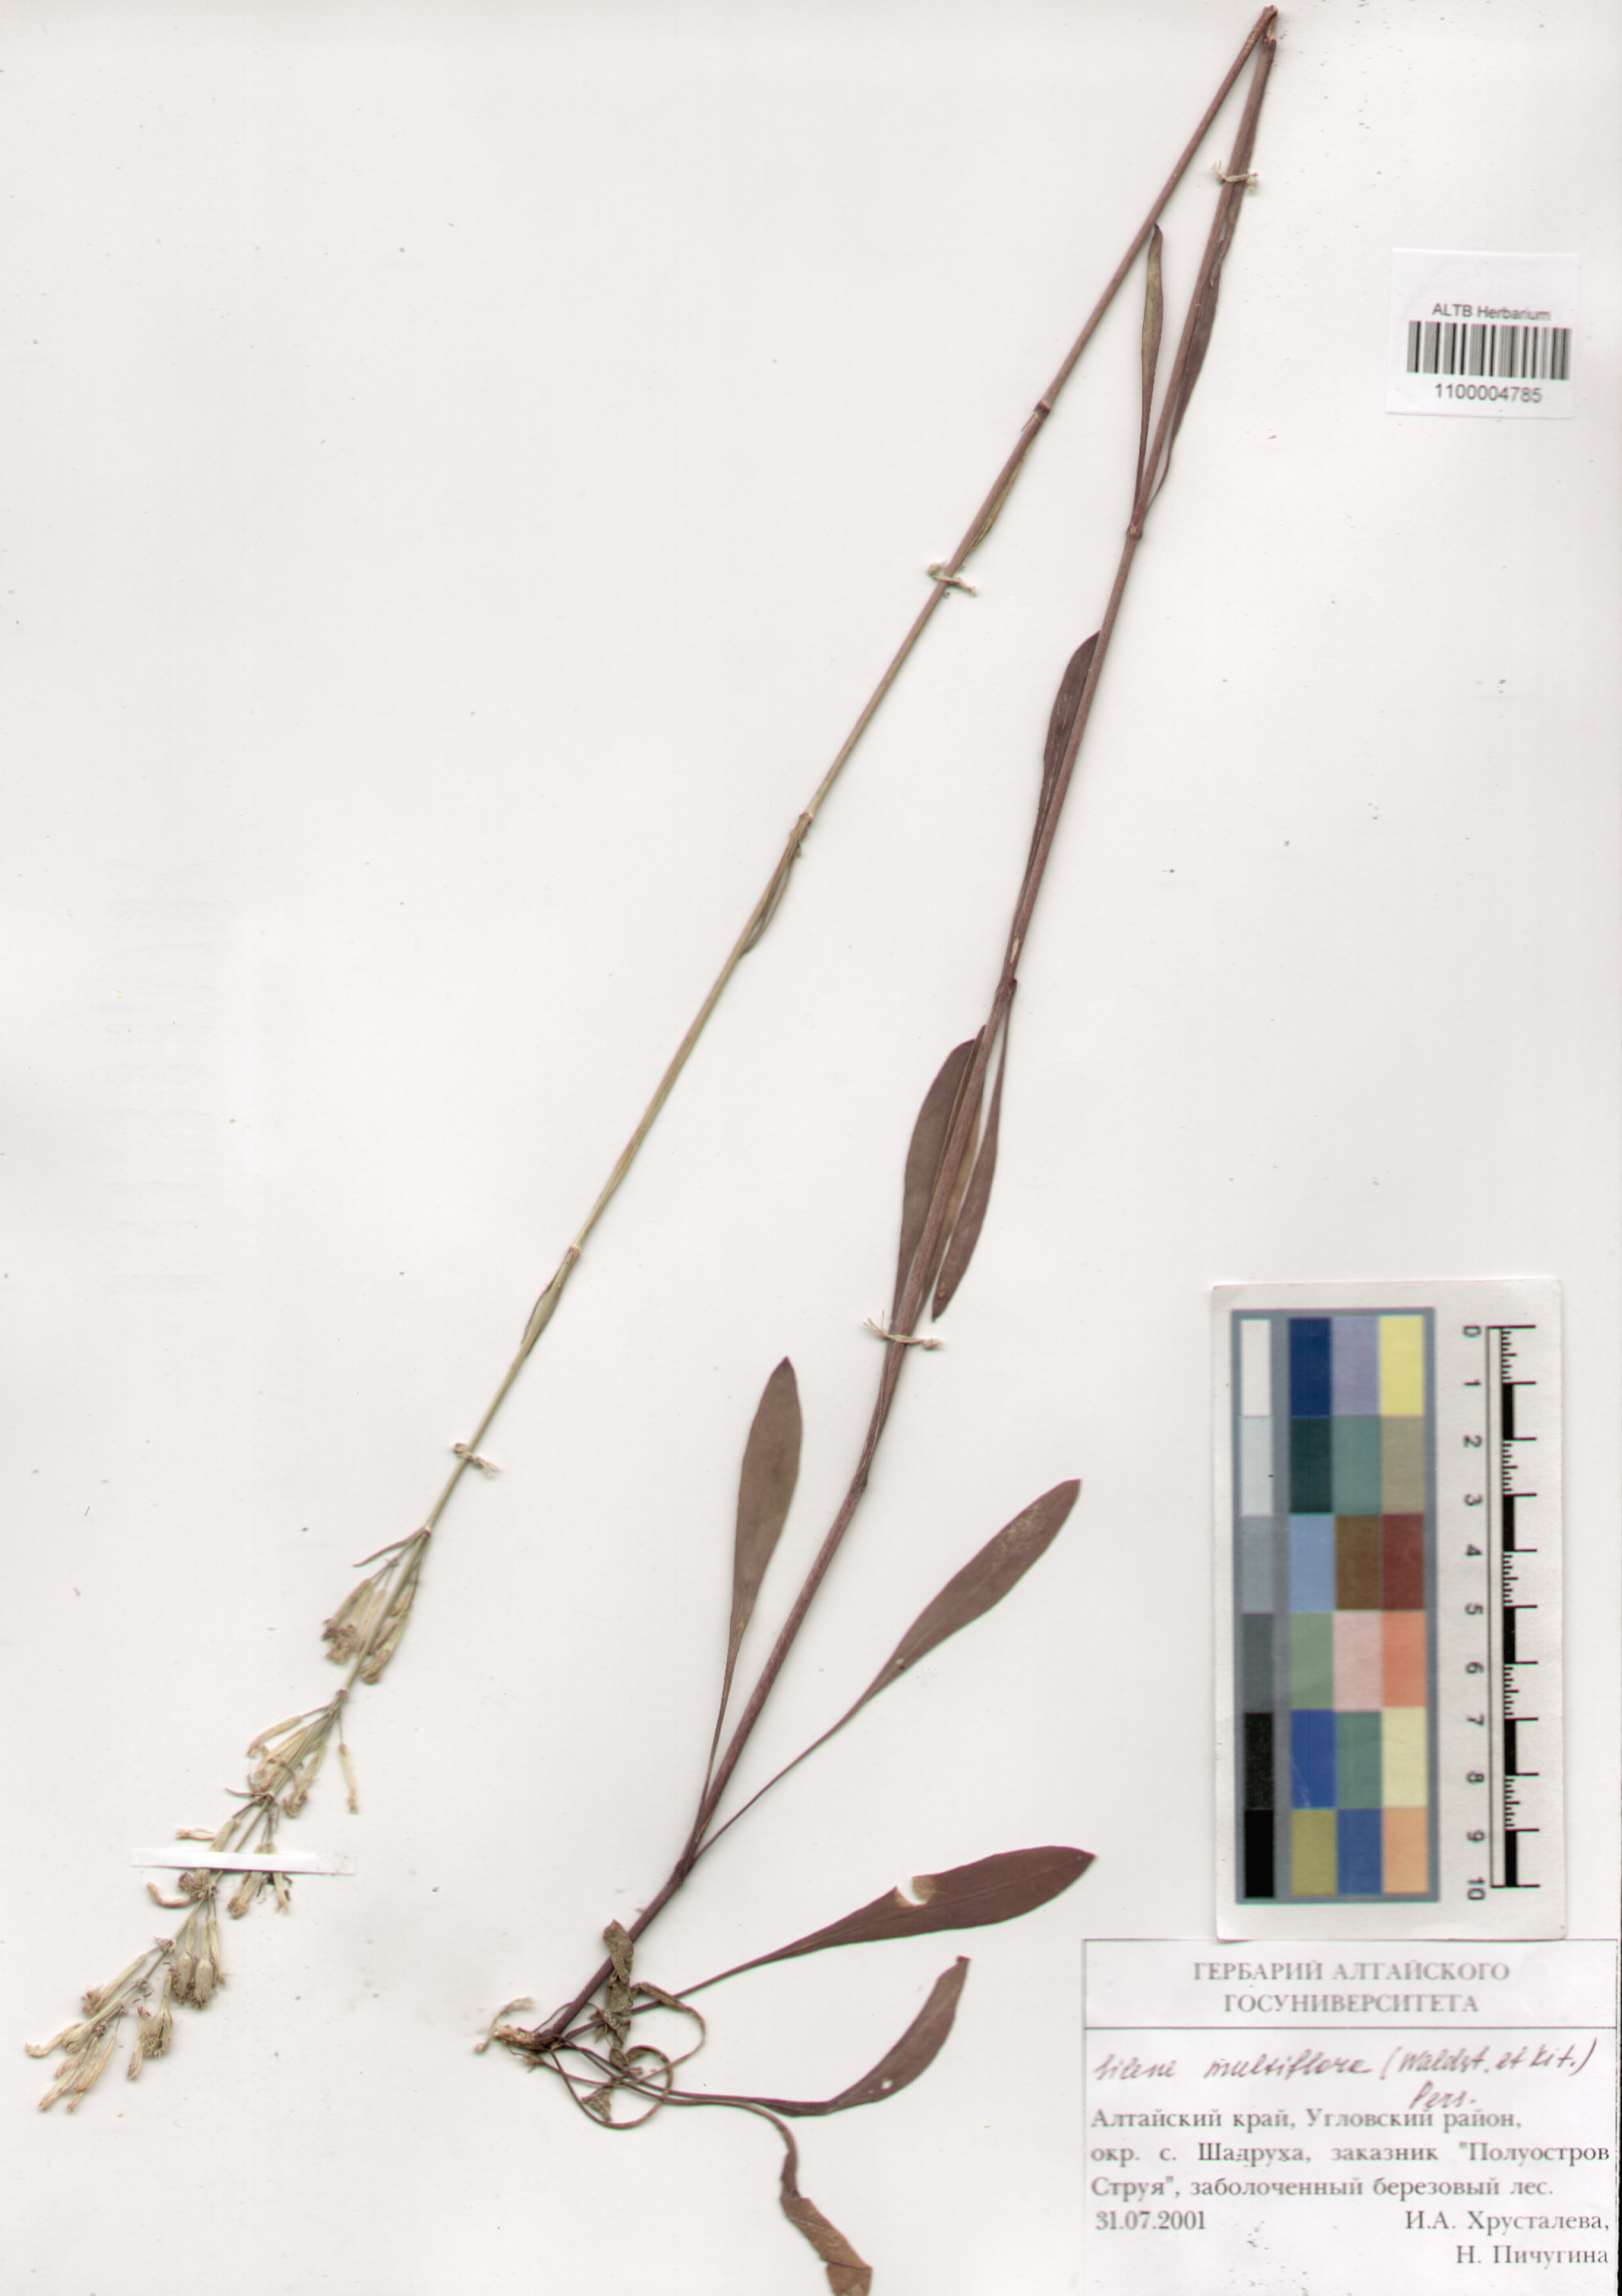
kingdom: Plantae
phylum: Tracheophyta
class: Magnoliopsida
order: Caryophyllales
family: Caryophyllaceae
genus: Silene
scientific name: Silene multiflora
